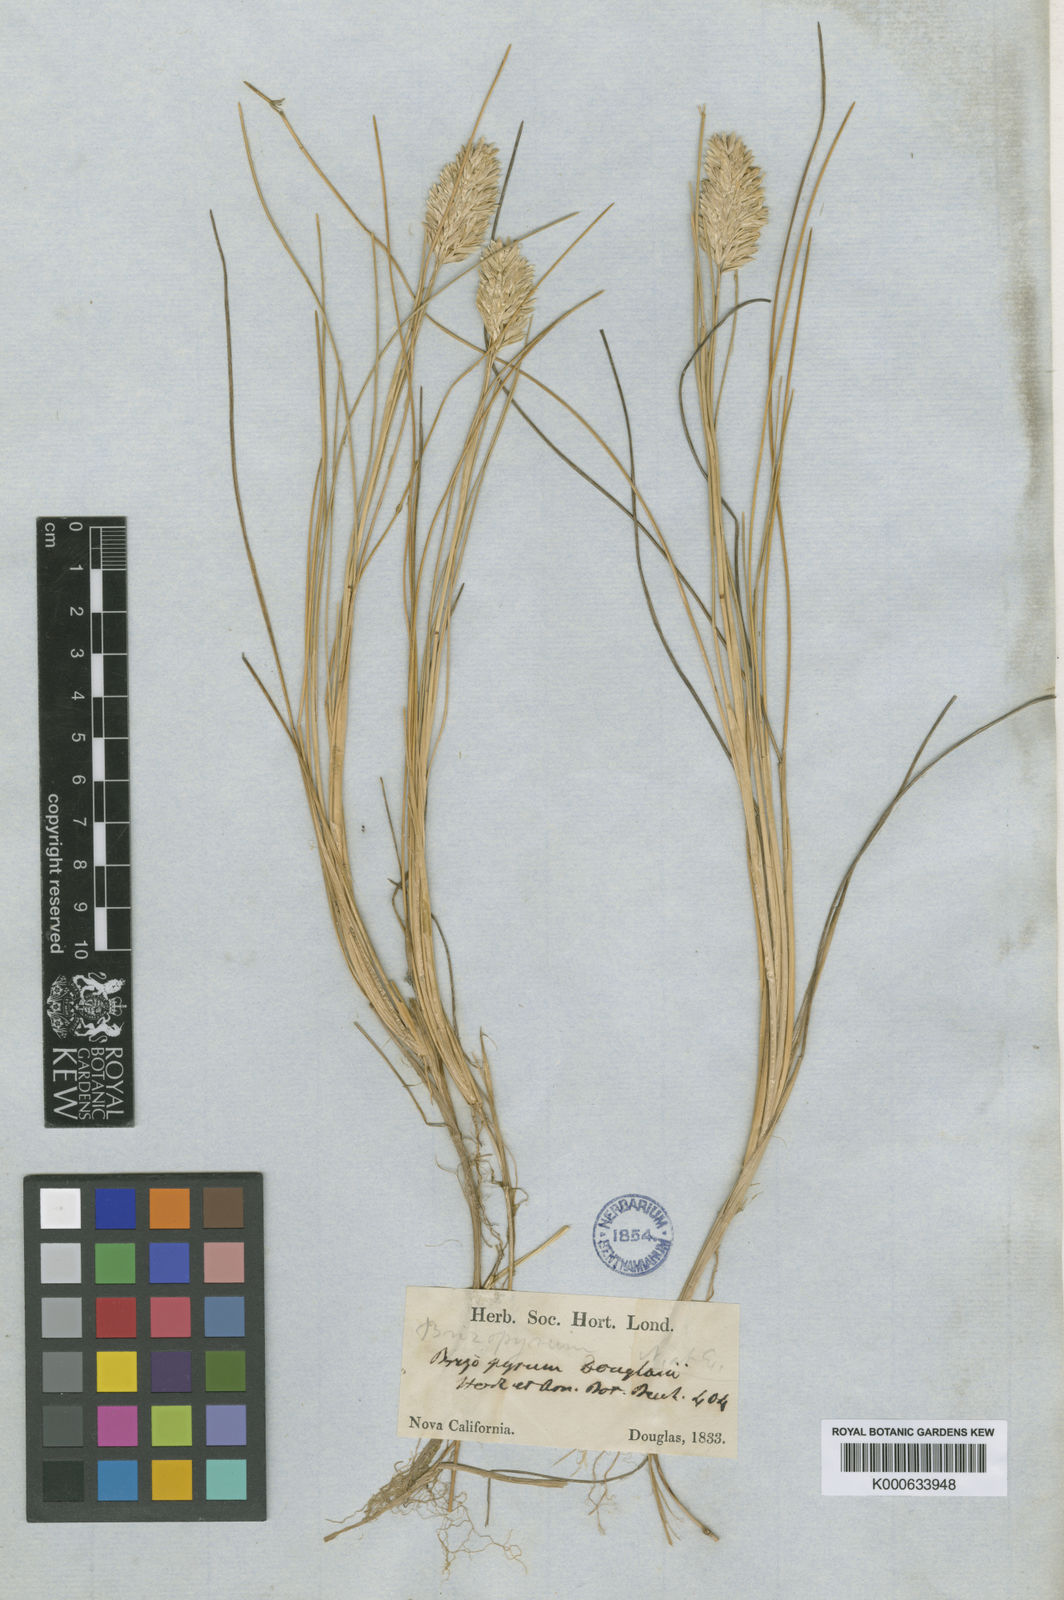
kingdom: Plantae
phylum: Tracheophyta
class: Liliopsida
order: Poales
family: Poaceae
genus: Poa
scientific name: Poa douglasii
